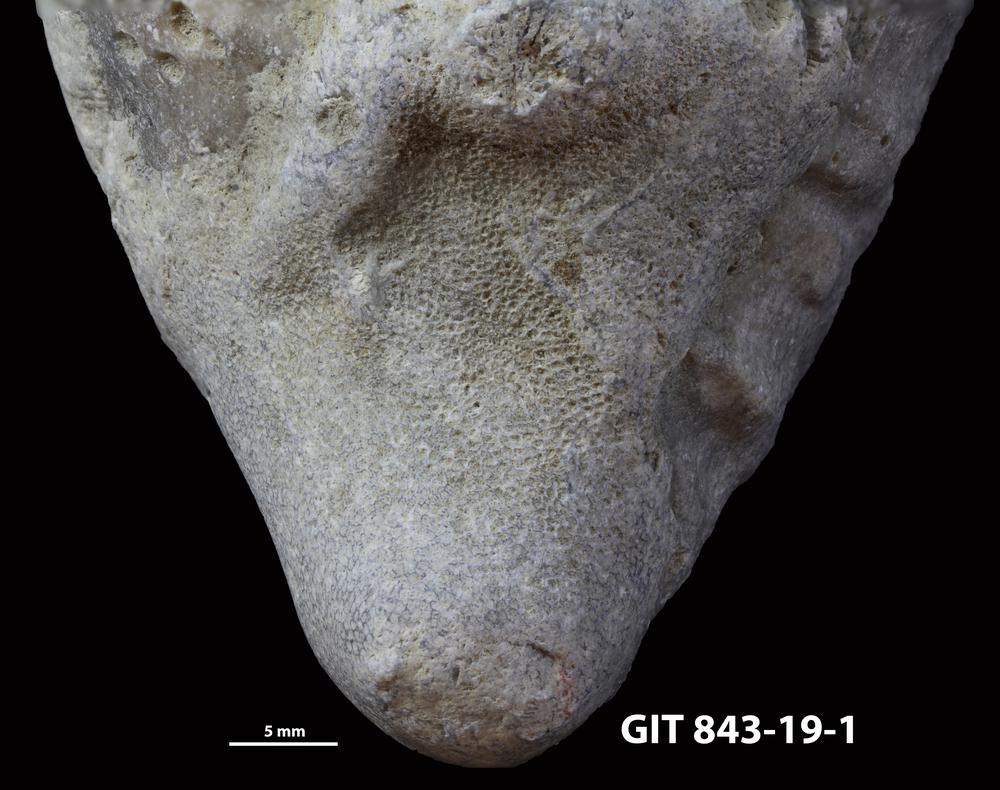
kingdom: Animalia
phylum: Bryozoa
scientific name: Bryozoa
